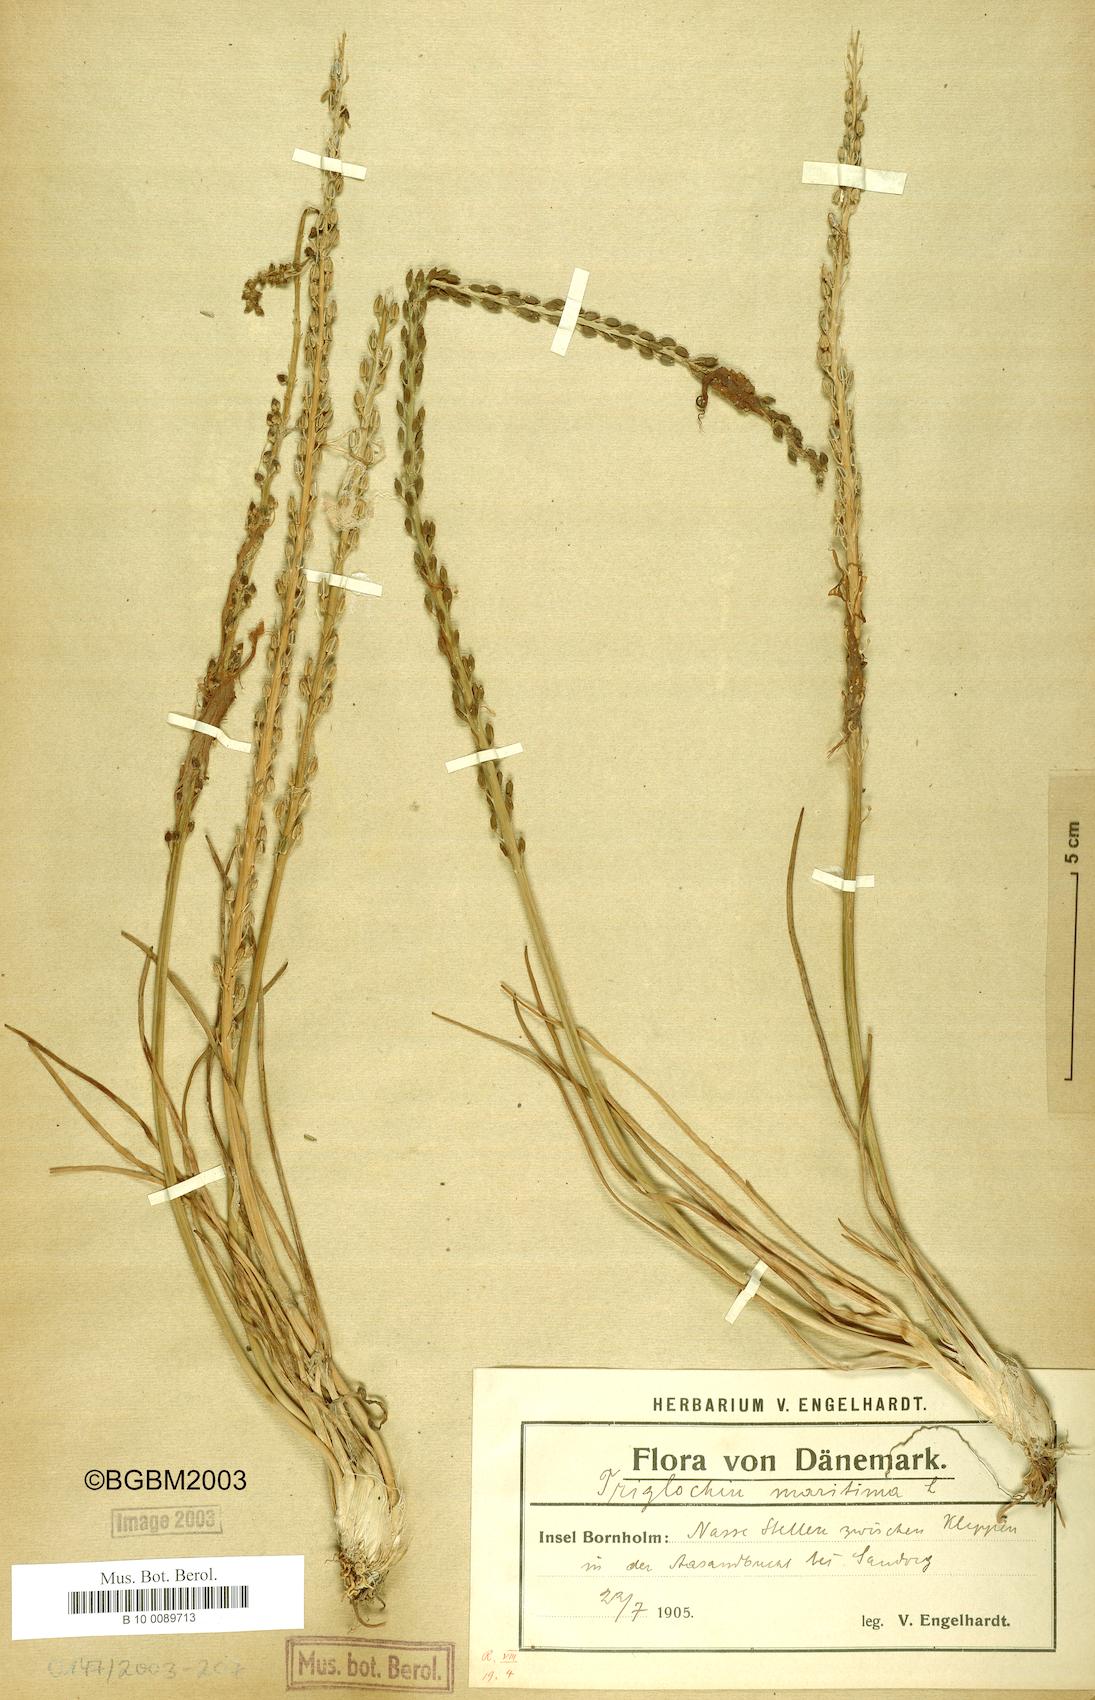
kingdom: Plantae
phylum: Tracheophyta
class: Liliopsida
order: Alismatales
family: Juncaginaceae
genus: Triglochin
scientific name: Triglochin maritima
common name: Sea arrowgrass
